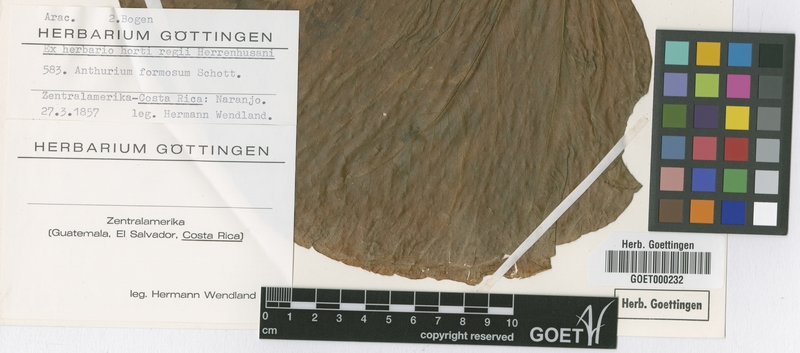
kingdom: Plantae
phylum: Tracheophyta
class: Liliopsida
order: Alismatales
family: Araceae
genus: Anthurium
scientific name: Anthurium formosum
